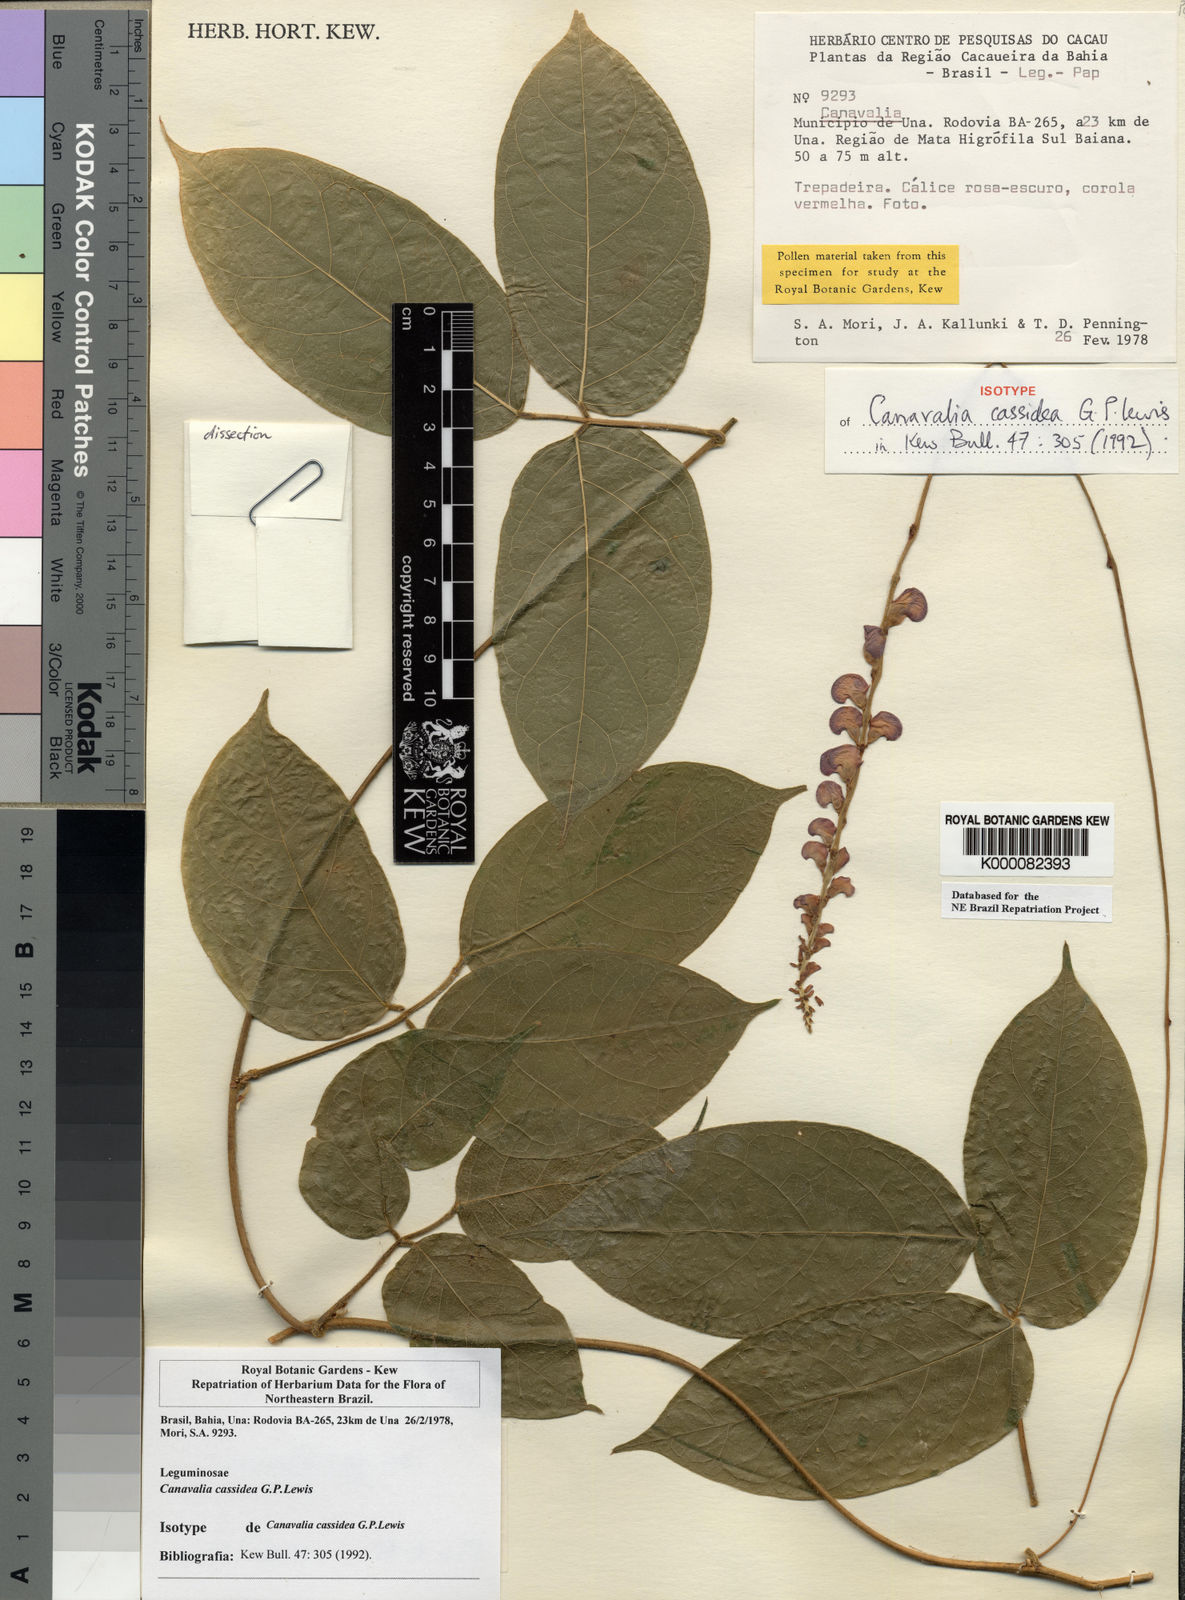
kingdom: Plantae
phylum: Tracheophyta
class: Magnoliopsida
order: Fabales
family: Fabaceae
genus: Canavalia
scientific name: Canavalia cassidea
